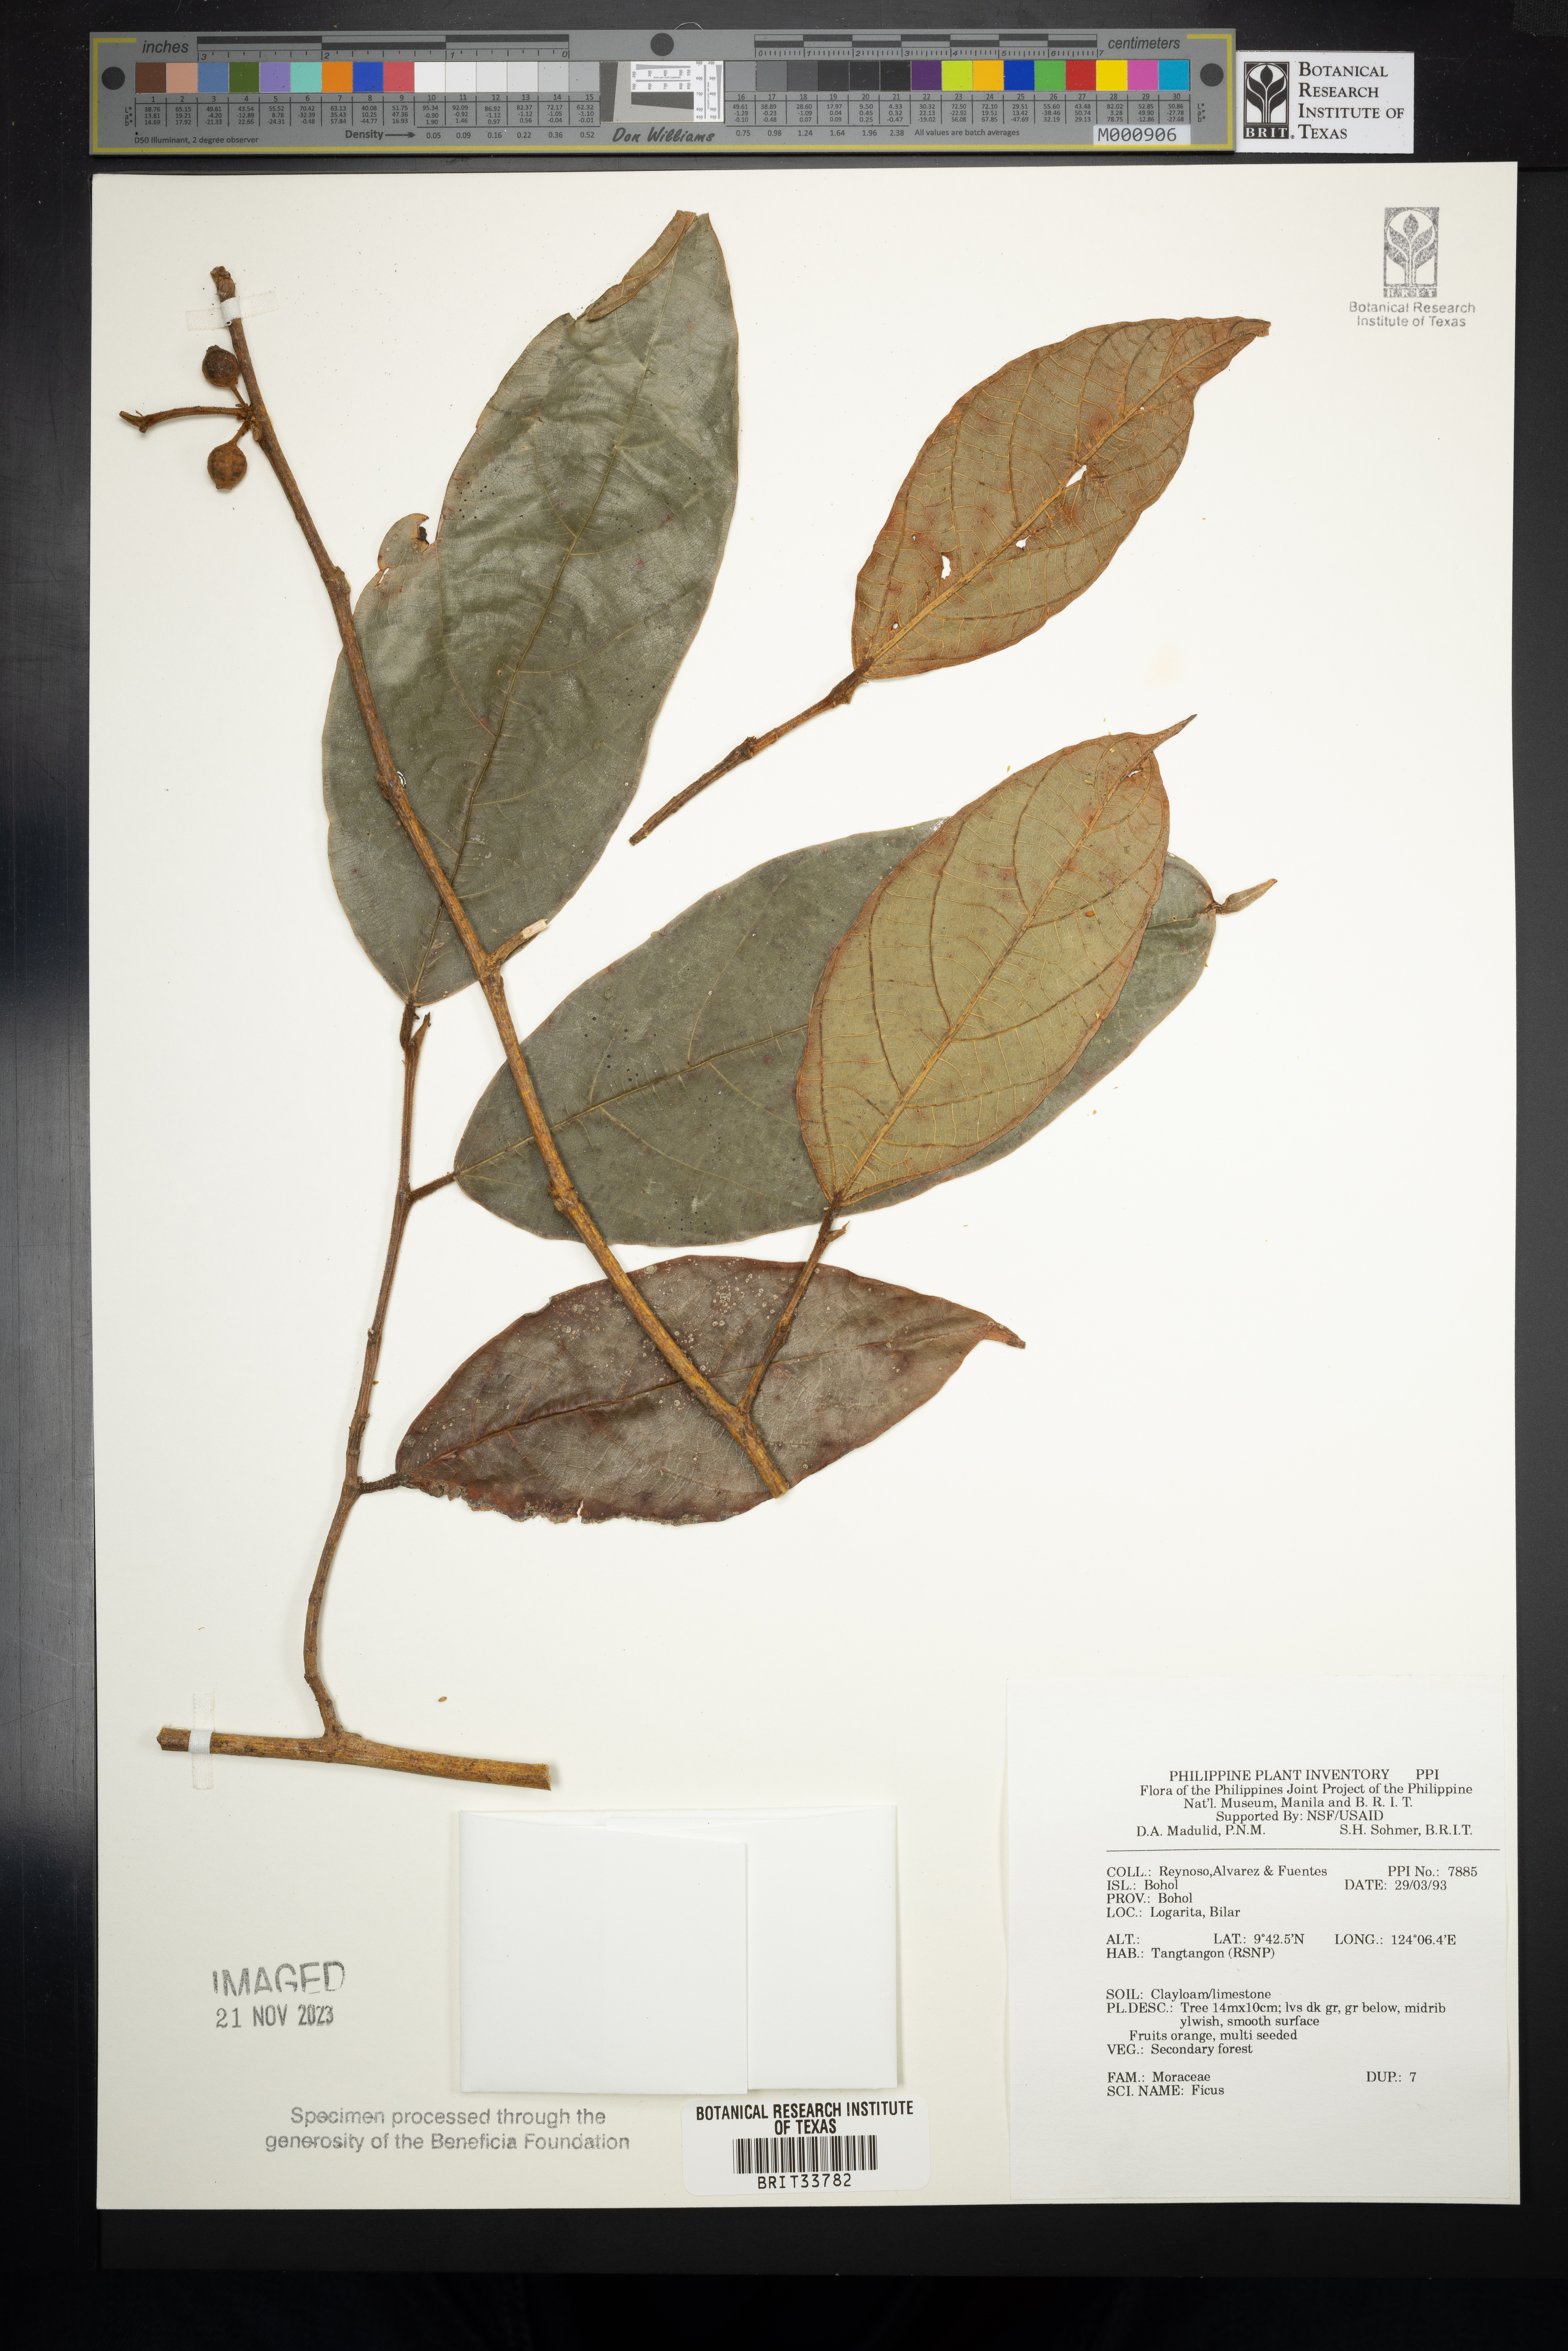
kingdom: Plantae
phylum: Tracheophyta
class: Magnoliopsida
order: Rosales
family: Moraceae
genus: Ficus
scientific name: Ficus
